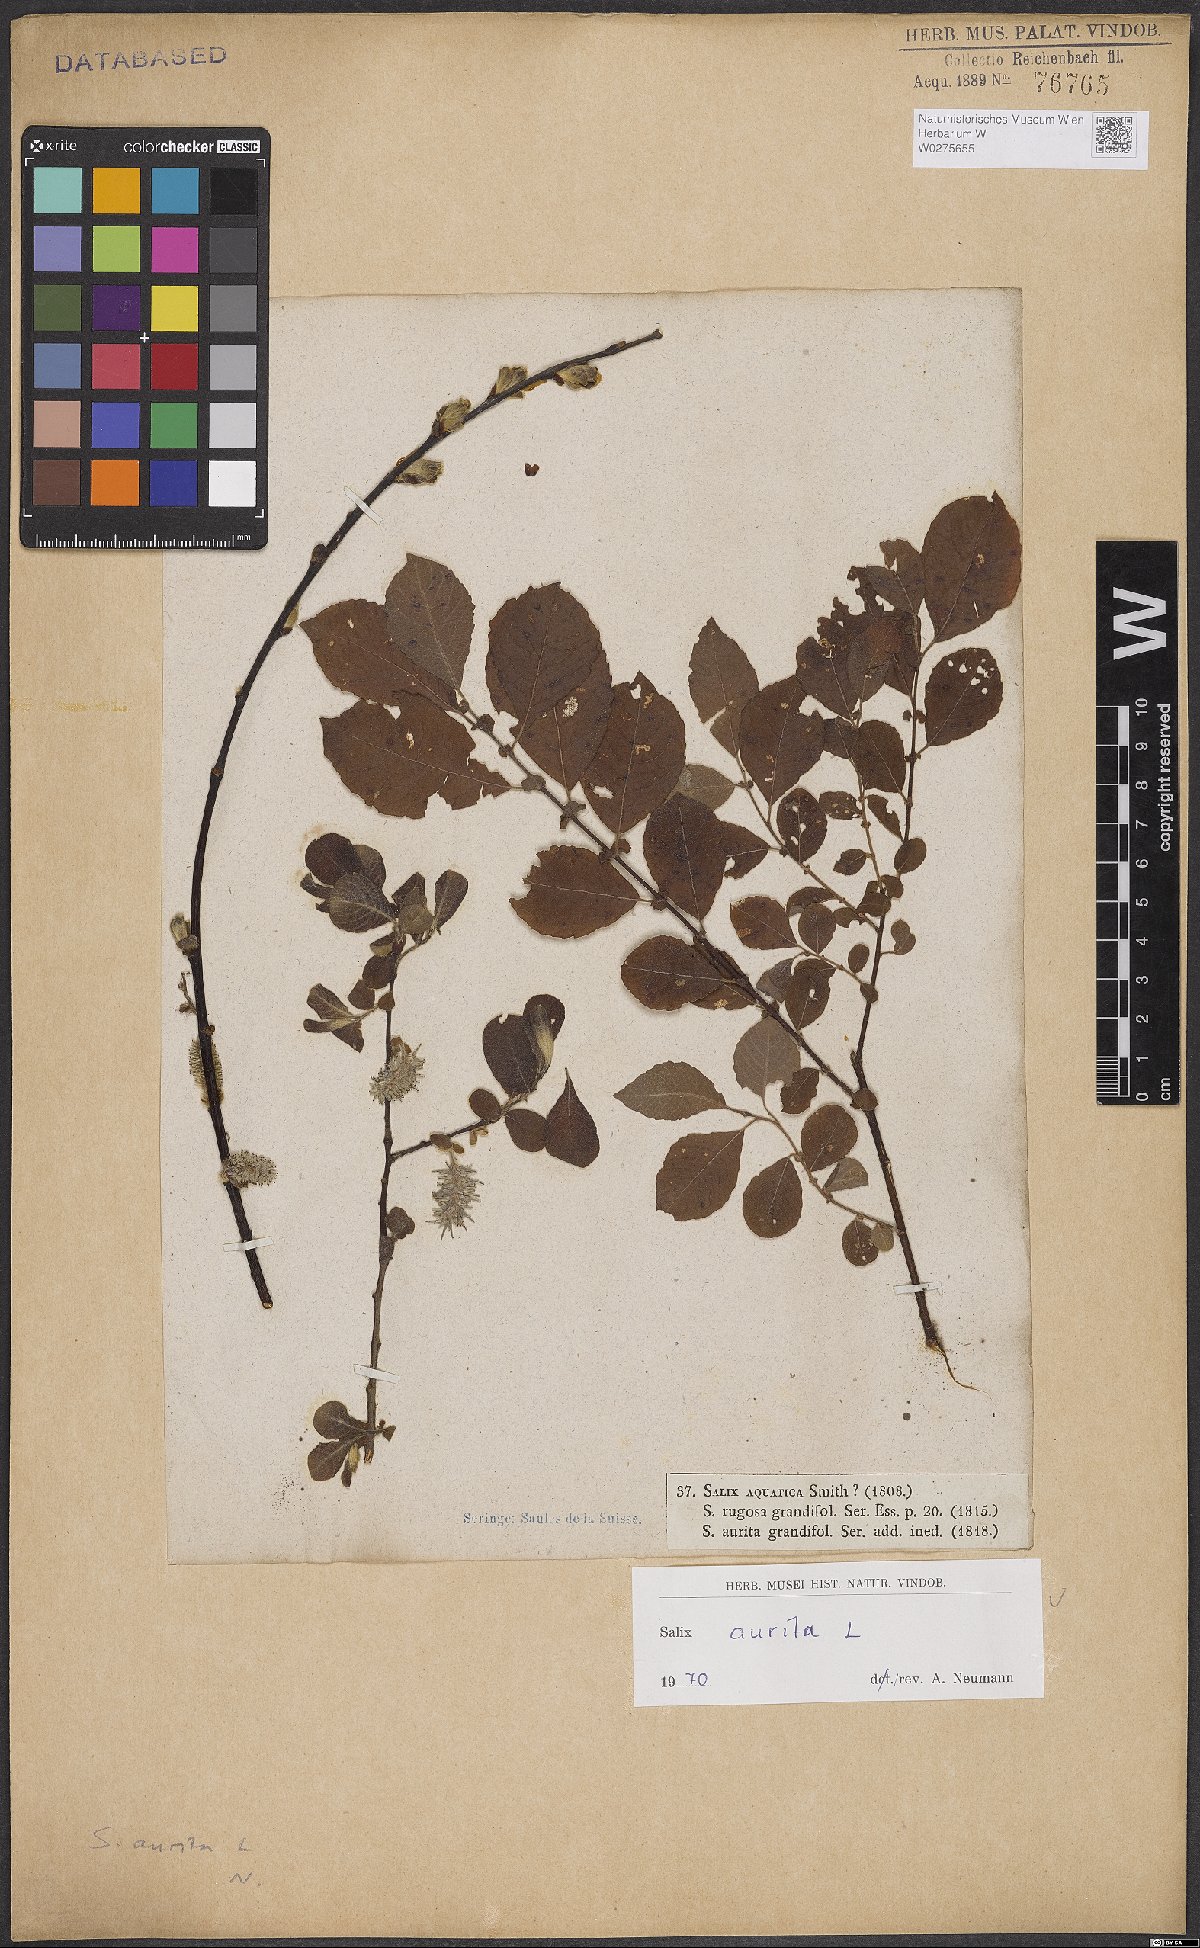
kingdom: Plantae
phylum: Tracheophyta
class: Magnoliopsida
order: Malpighiales
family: Salicaceae
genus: Salix
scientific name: Salix aurita
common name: Eared willow
